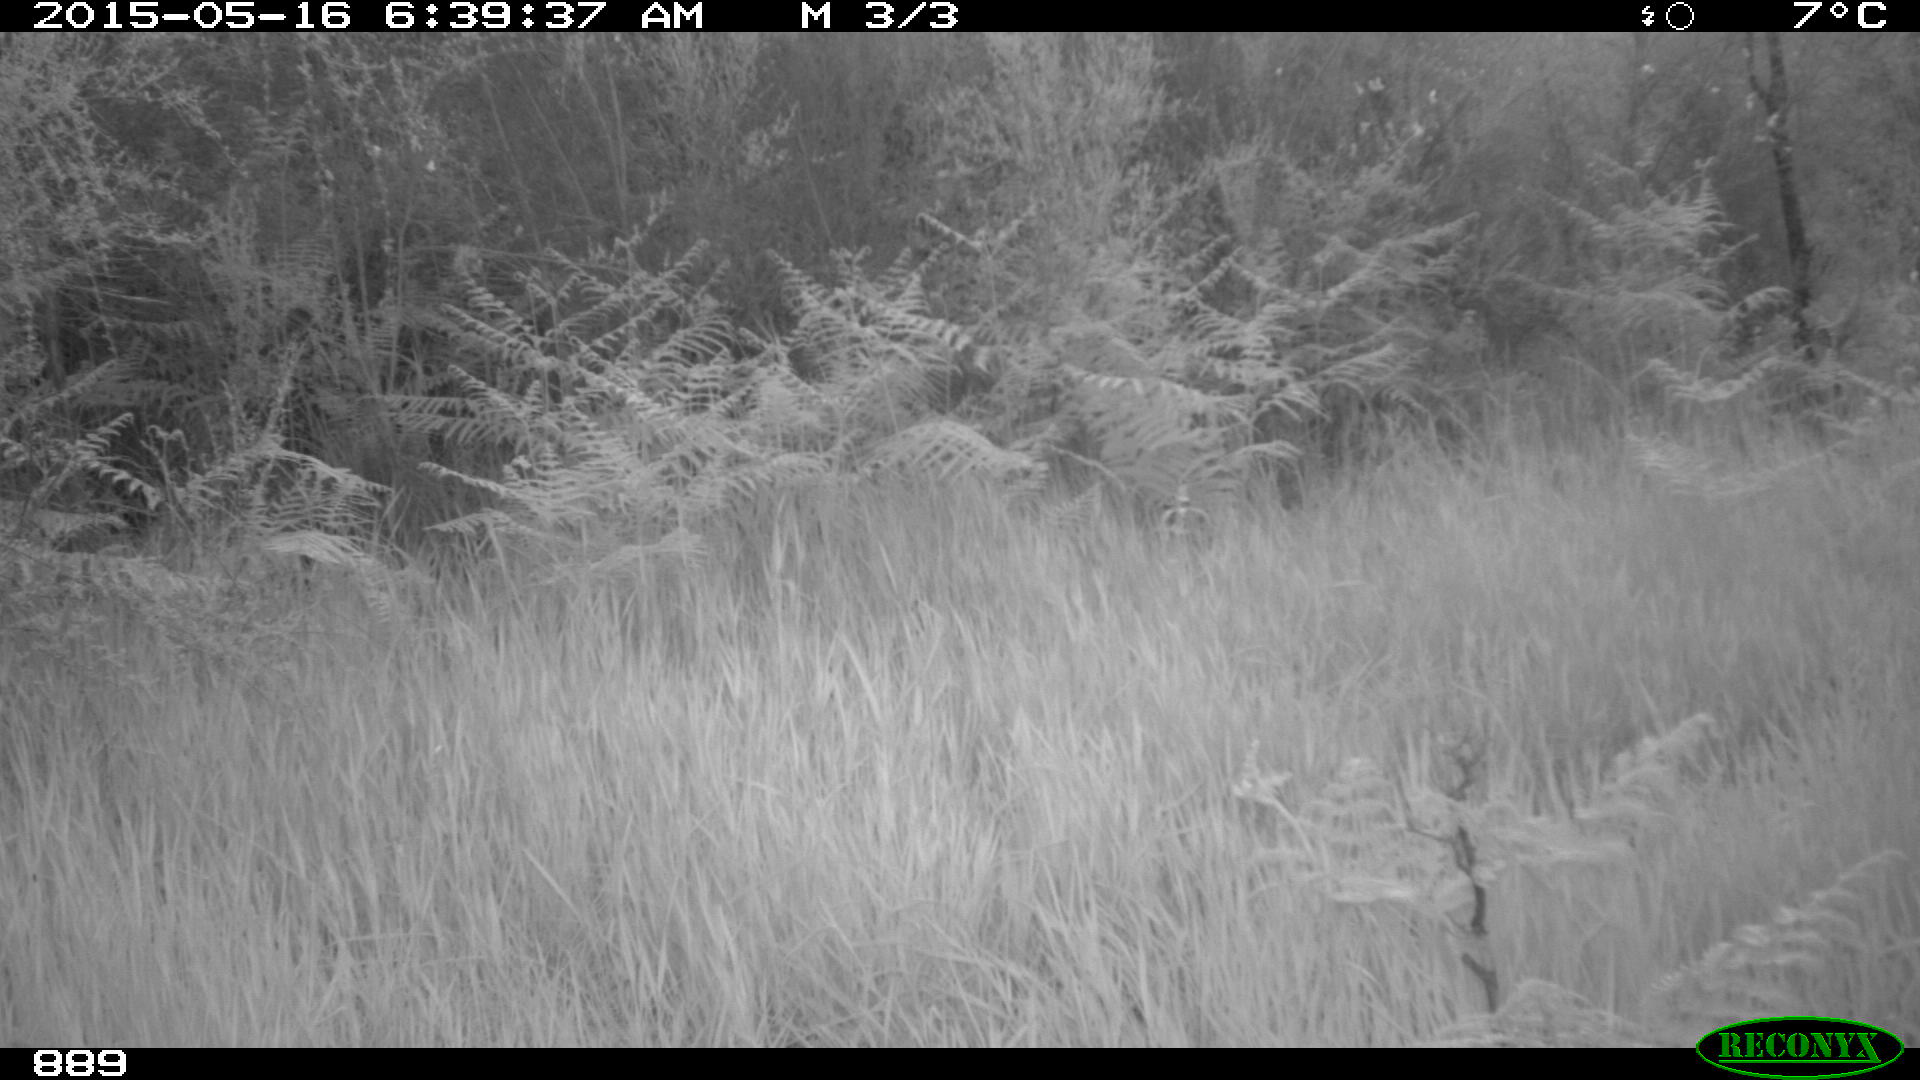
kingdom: Animalia
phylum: Chordata
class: Mammalia
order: Artiodactyla
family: Cervidae
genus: Capreolus
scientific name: Capreolus capreolus
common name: Western roe deer
